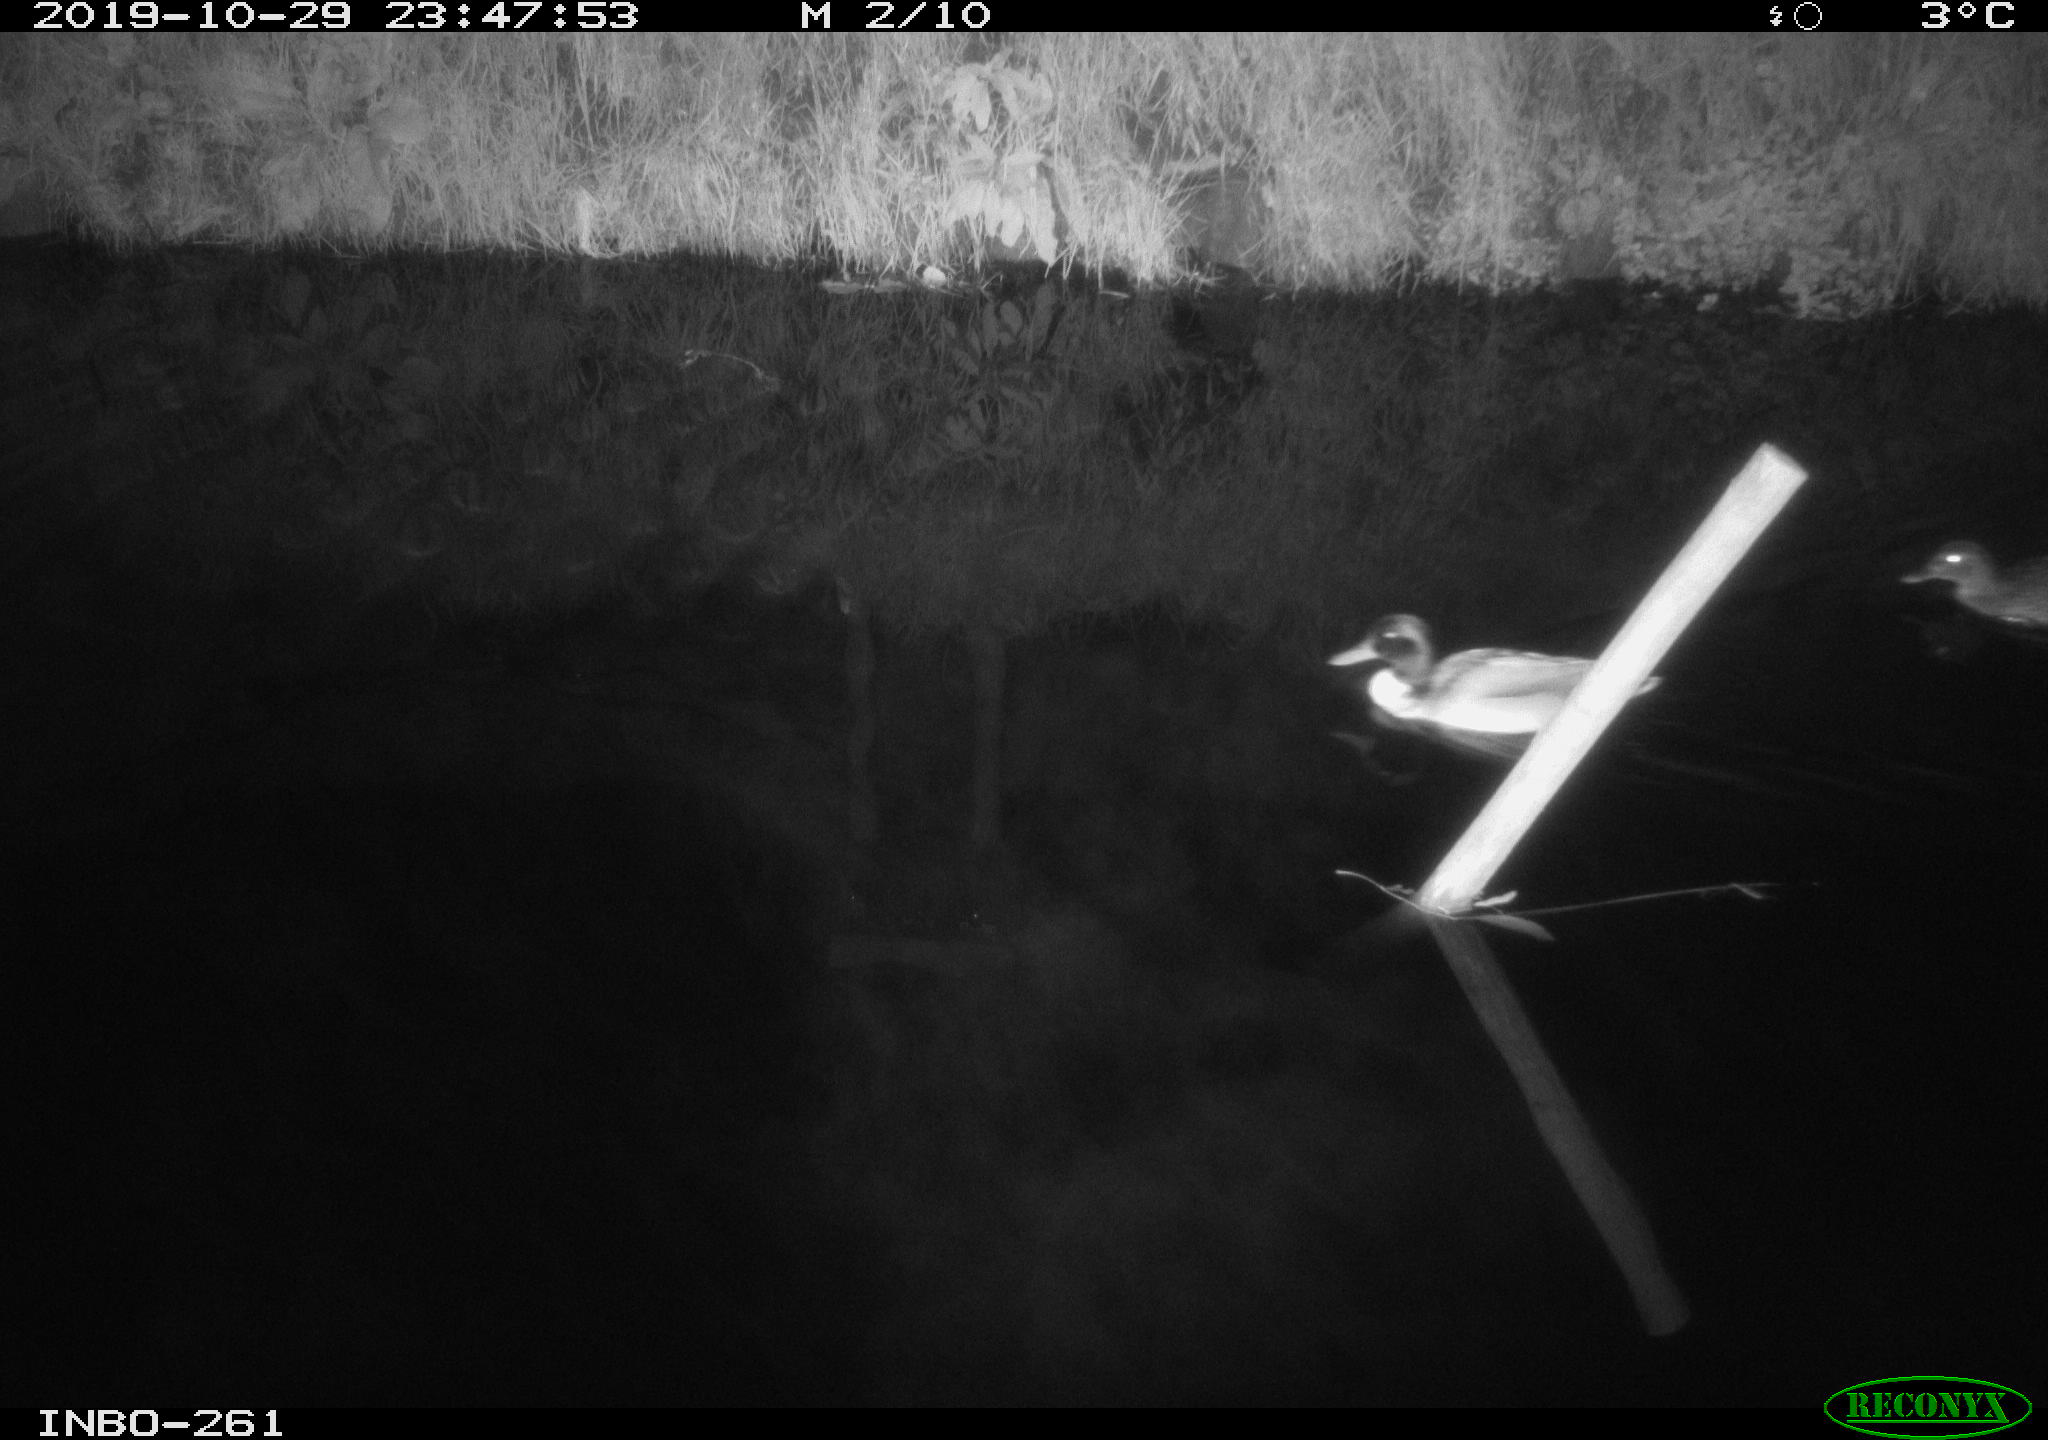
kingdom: Animalia
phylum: Chordata
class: Aves
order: Anseriformes
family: Anatidae
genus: Anas
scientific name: Anas platyrhynchos
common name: Mallard
